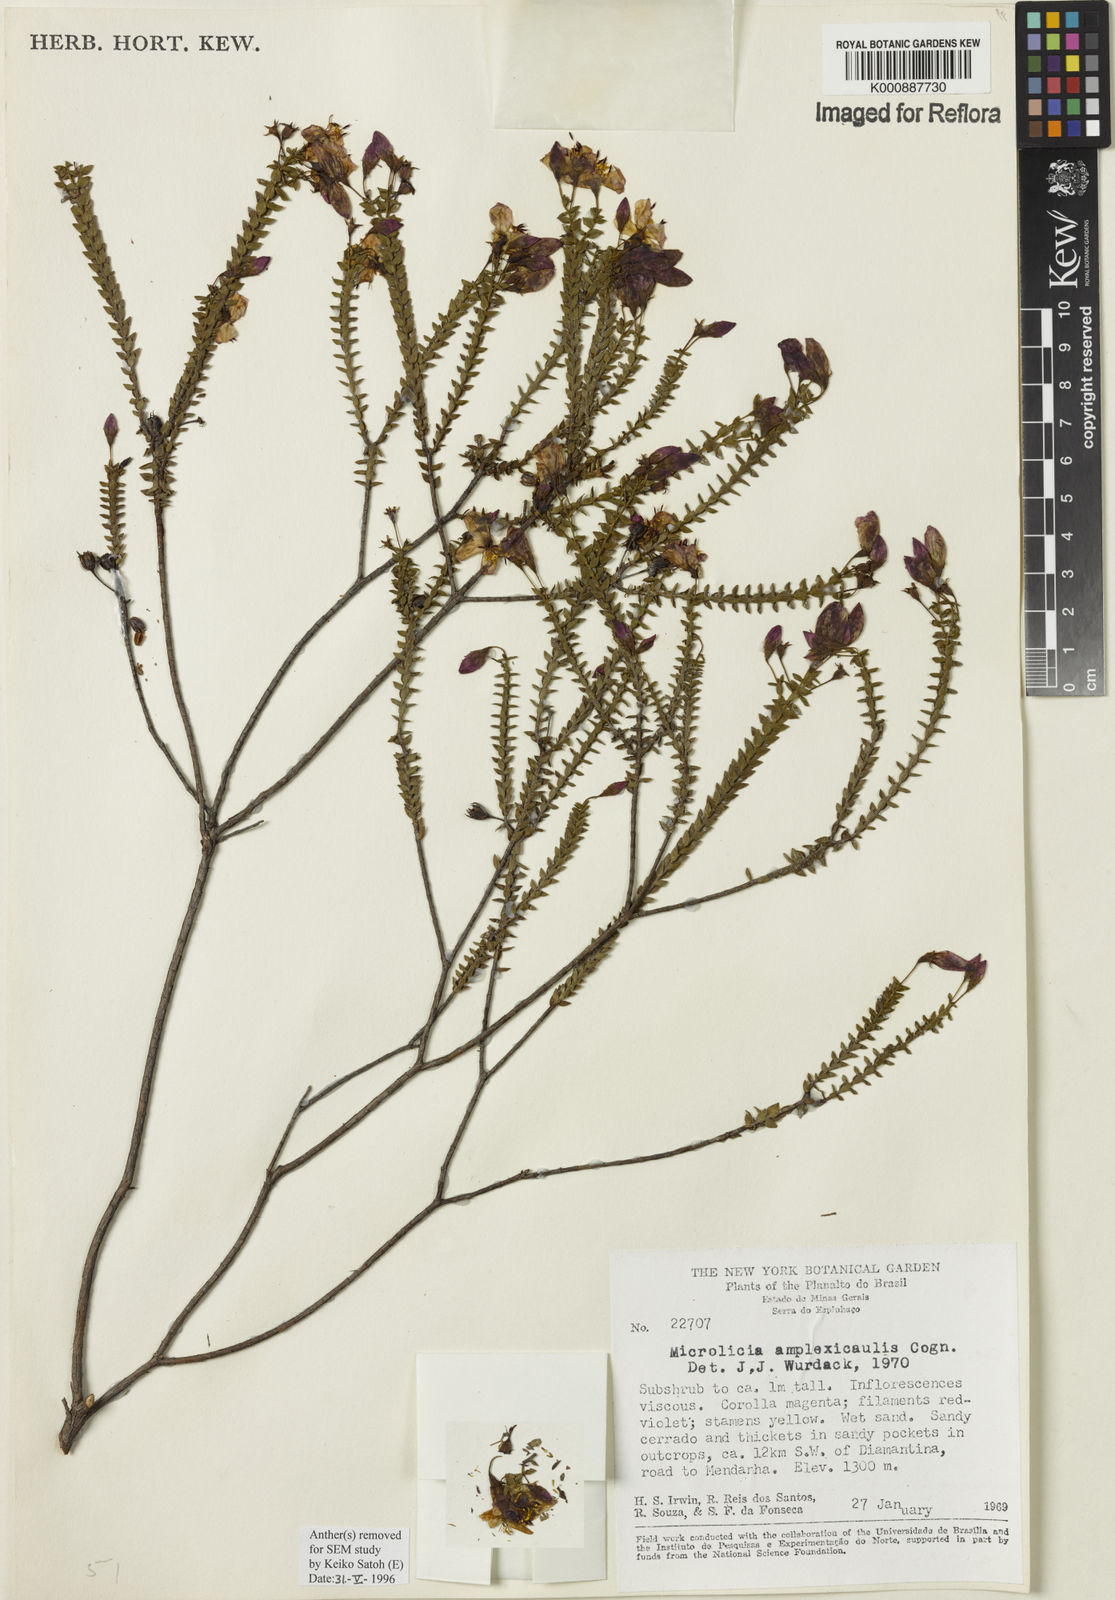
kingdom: Plantae
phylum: Tracheophyta
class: Magnoliopsida
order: Myrtales
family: Melastomataceae
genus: Microlicia
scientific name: Microlicia amplexicaulis
